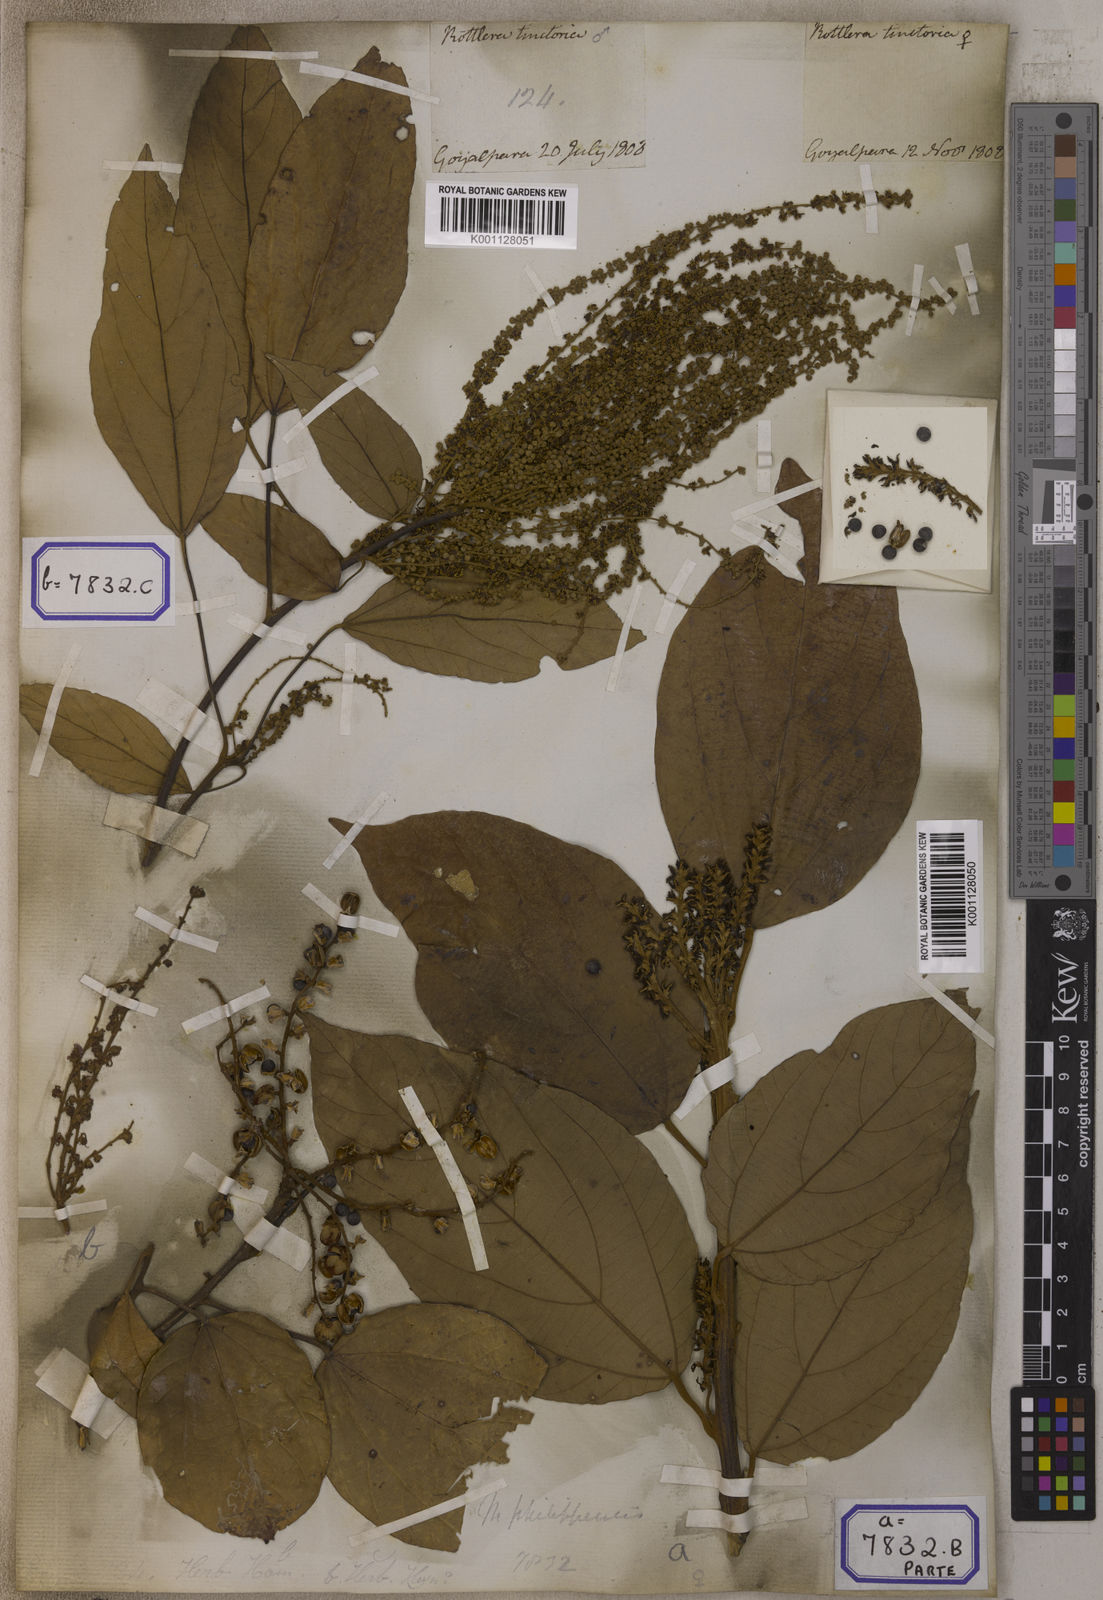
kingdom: Plantae
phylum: Tracheophyta
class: Magnoliopsida
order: Malpighiales
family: Euphorbiaceae
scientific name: Euphorbiaceae
